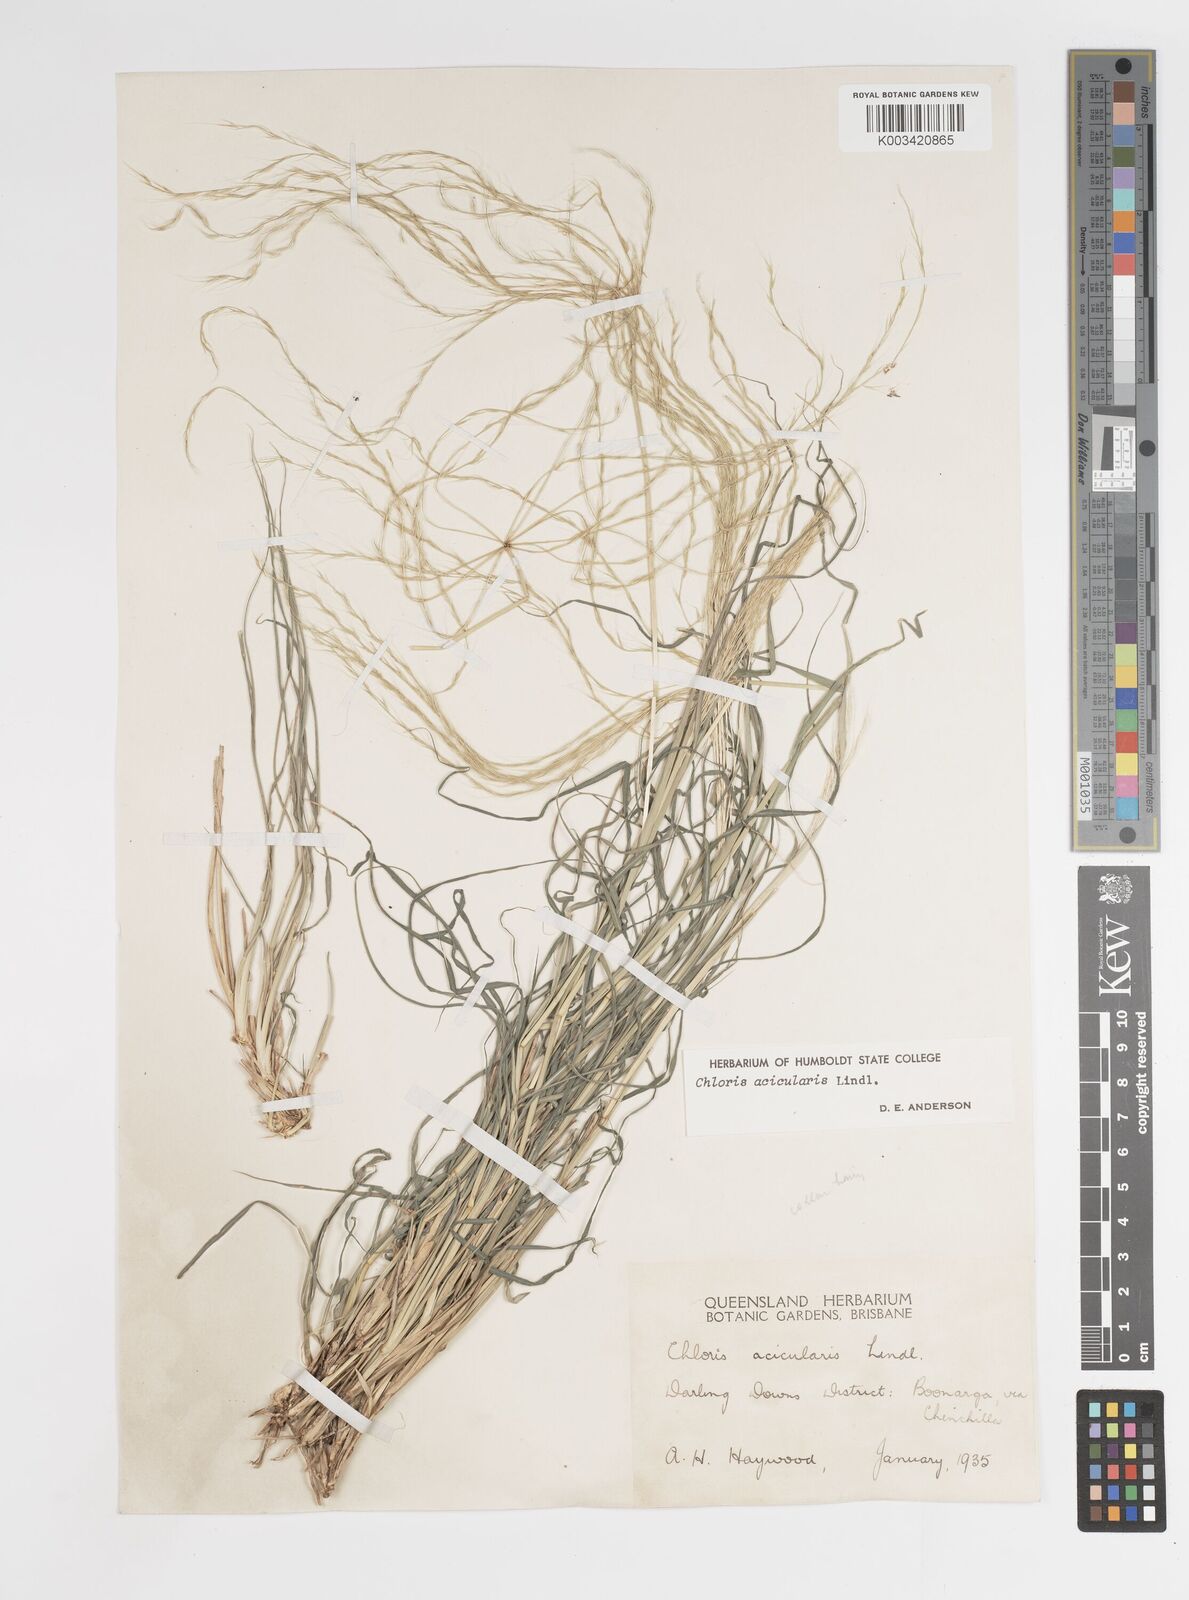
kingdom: Plantae
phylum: Tracheophyta
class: Liliopsida
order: Poales
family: Poaceae
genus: Enteropogon
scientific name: Enteropogon acicularis
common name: Curly windmill grass
